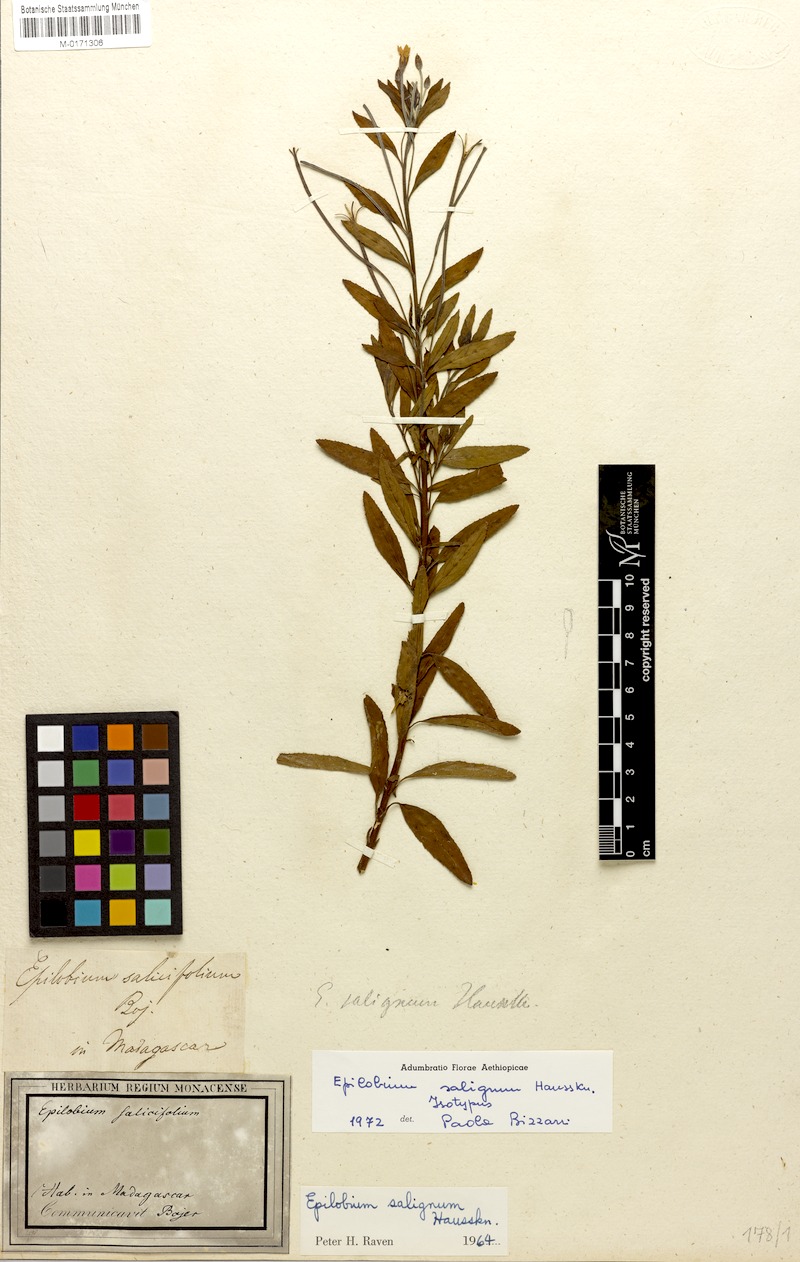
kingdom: Plantae
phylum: Tracheophyta
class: Magnoliopsida
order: Myrtales
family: Onagraceae
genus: Epilobium
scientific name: Epilobium salignum
